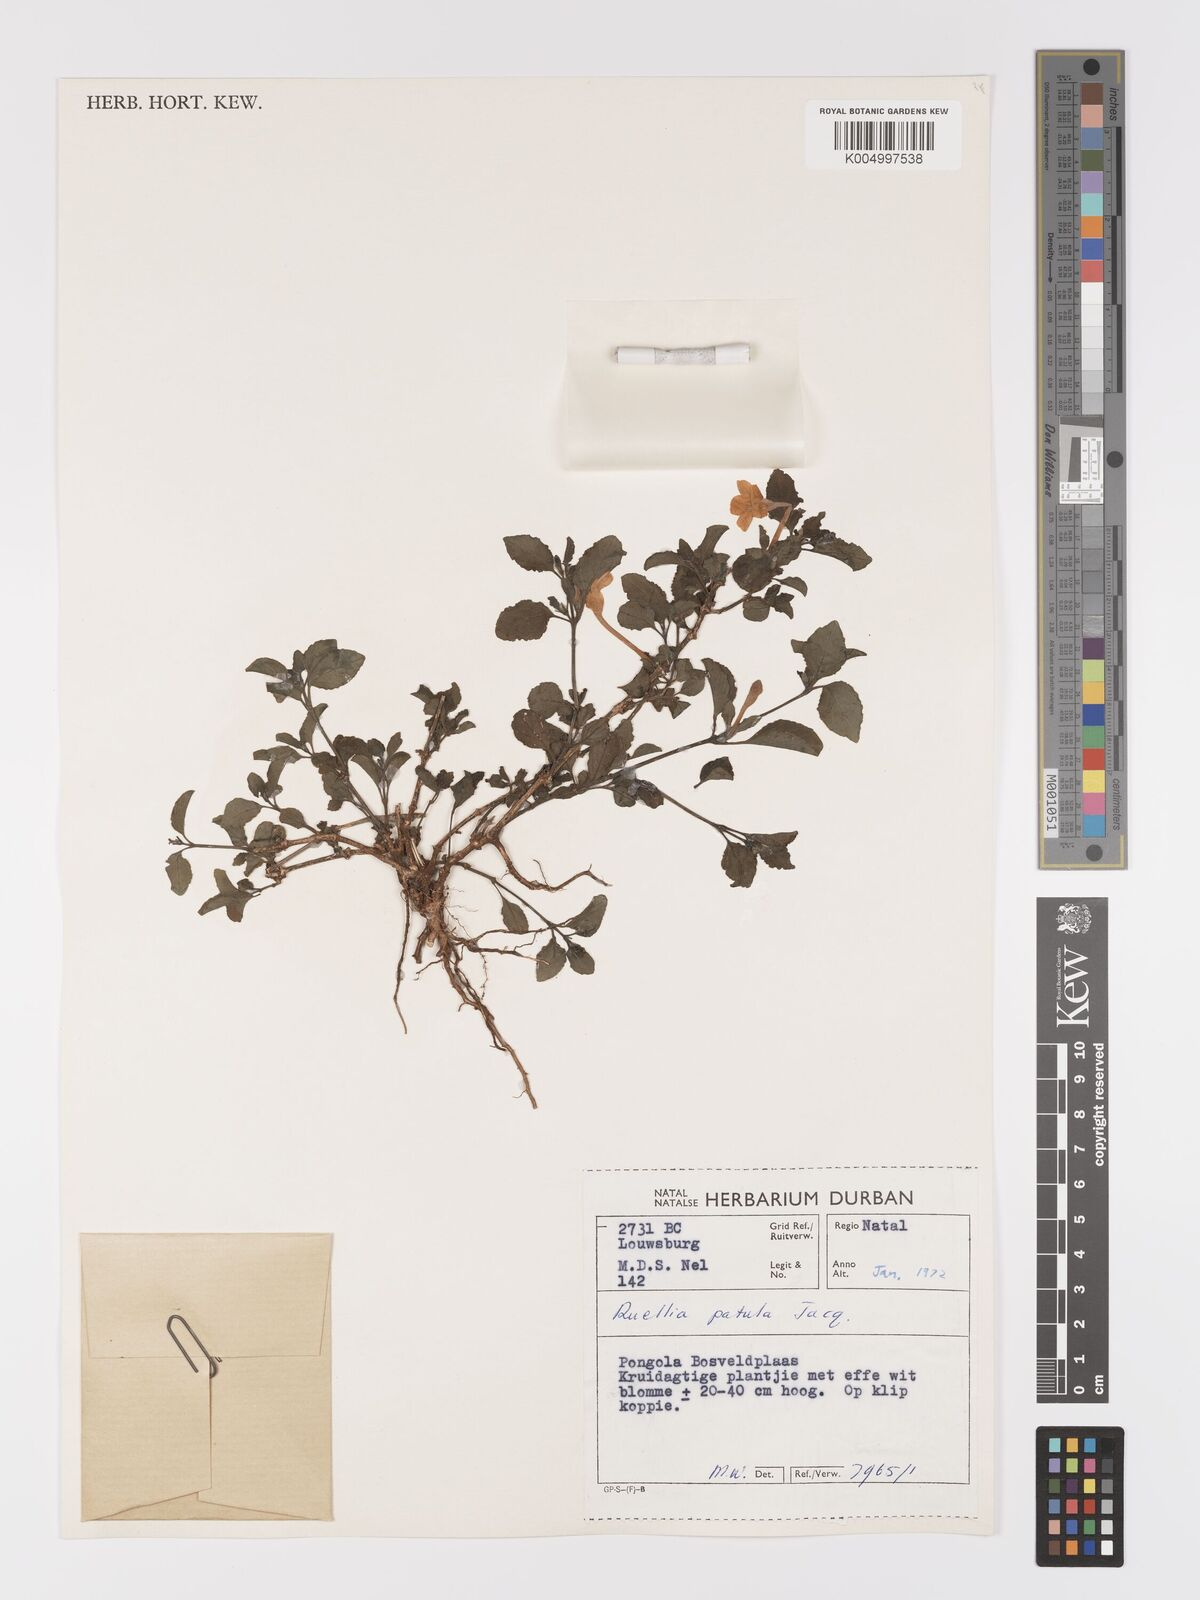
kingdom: Plantae
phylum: Tracheophyta
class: Magnoliopsida
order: Lamiales
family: Acanthaceae
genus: Ruellia
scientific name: Ruellia patula
